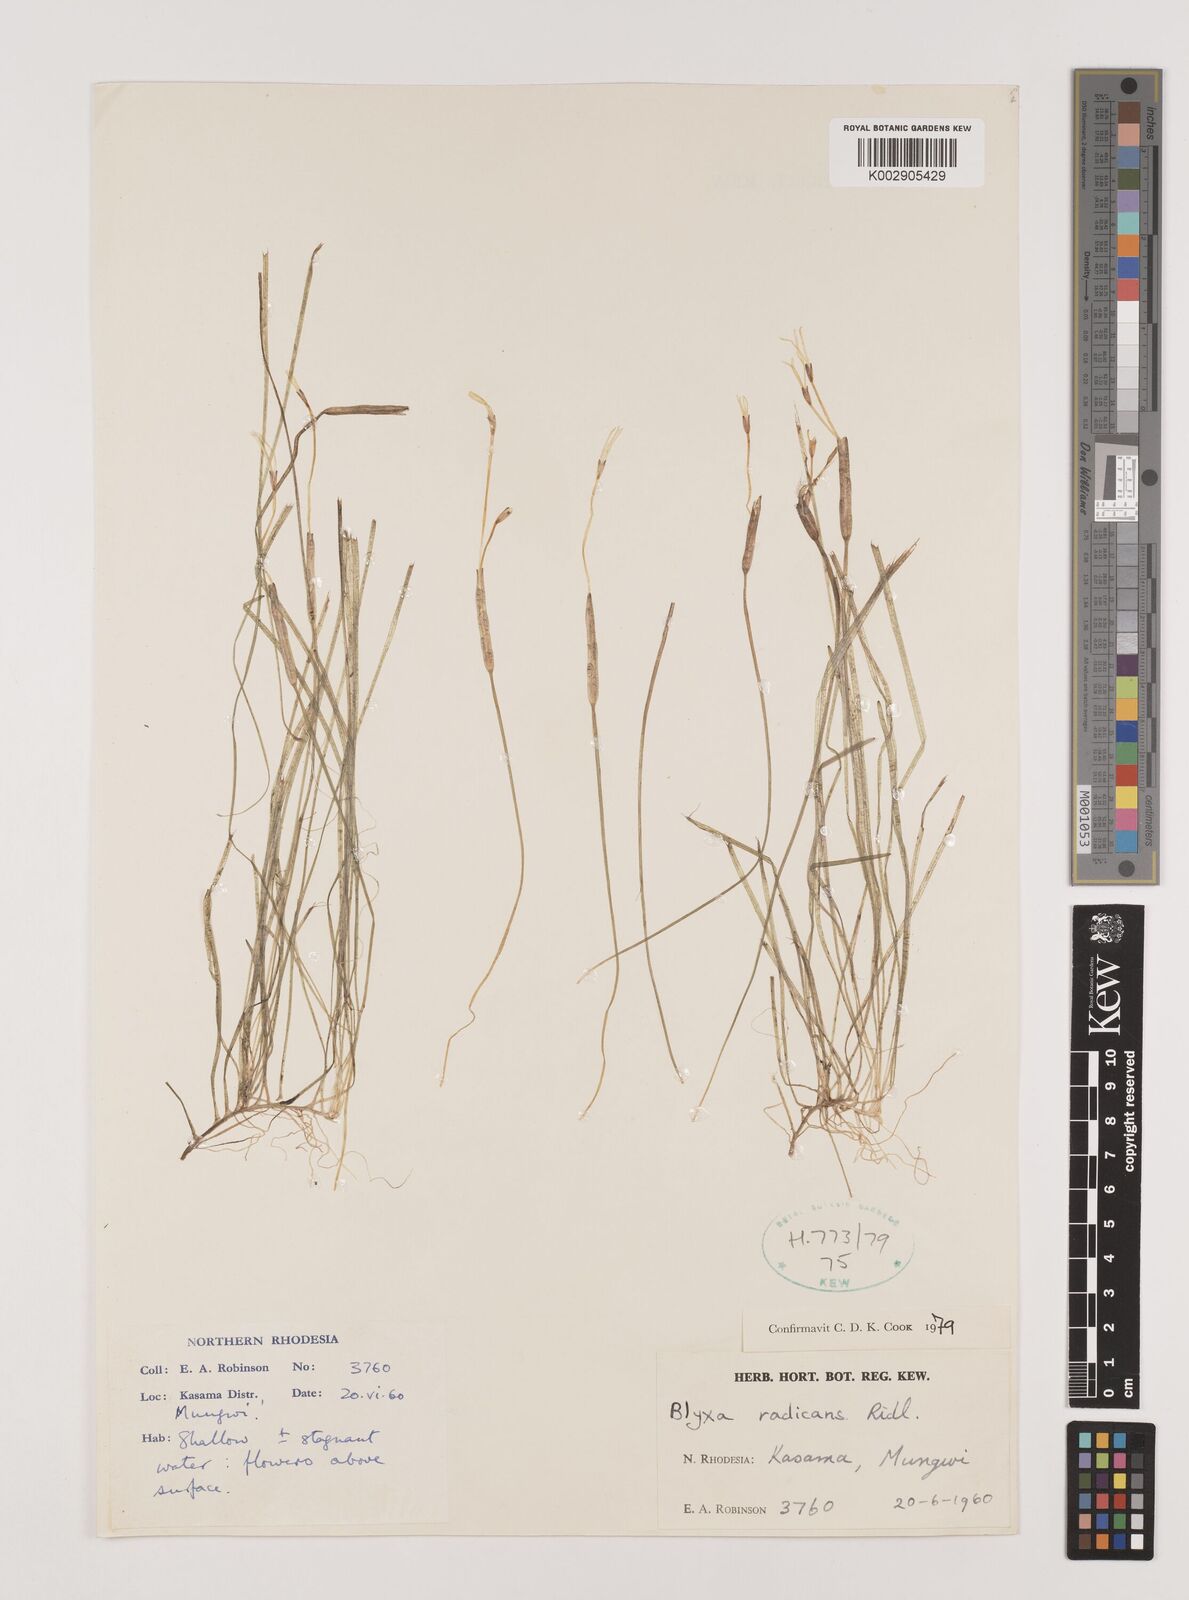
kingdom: Plantae
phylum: Tracheophyta
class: Liliopsida
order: Alismatales
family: Hydrocharitaceae
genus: Blyxa
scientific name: Blyxa radicans
